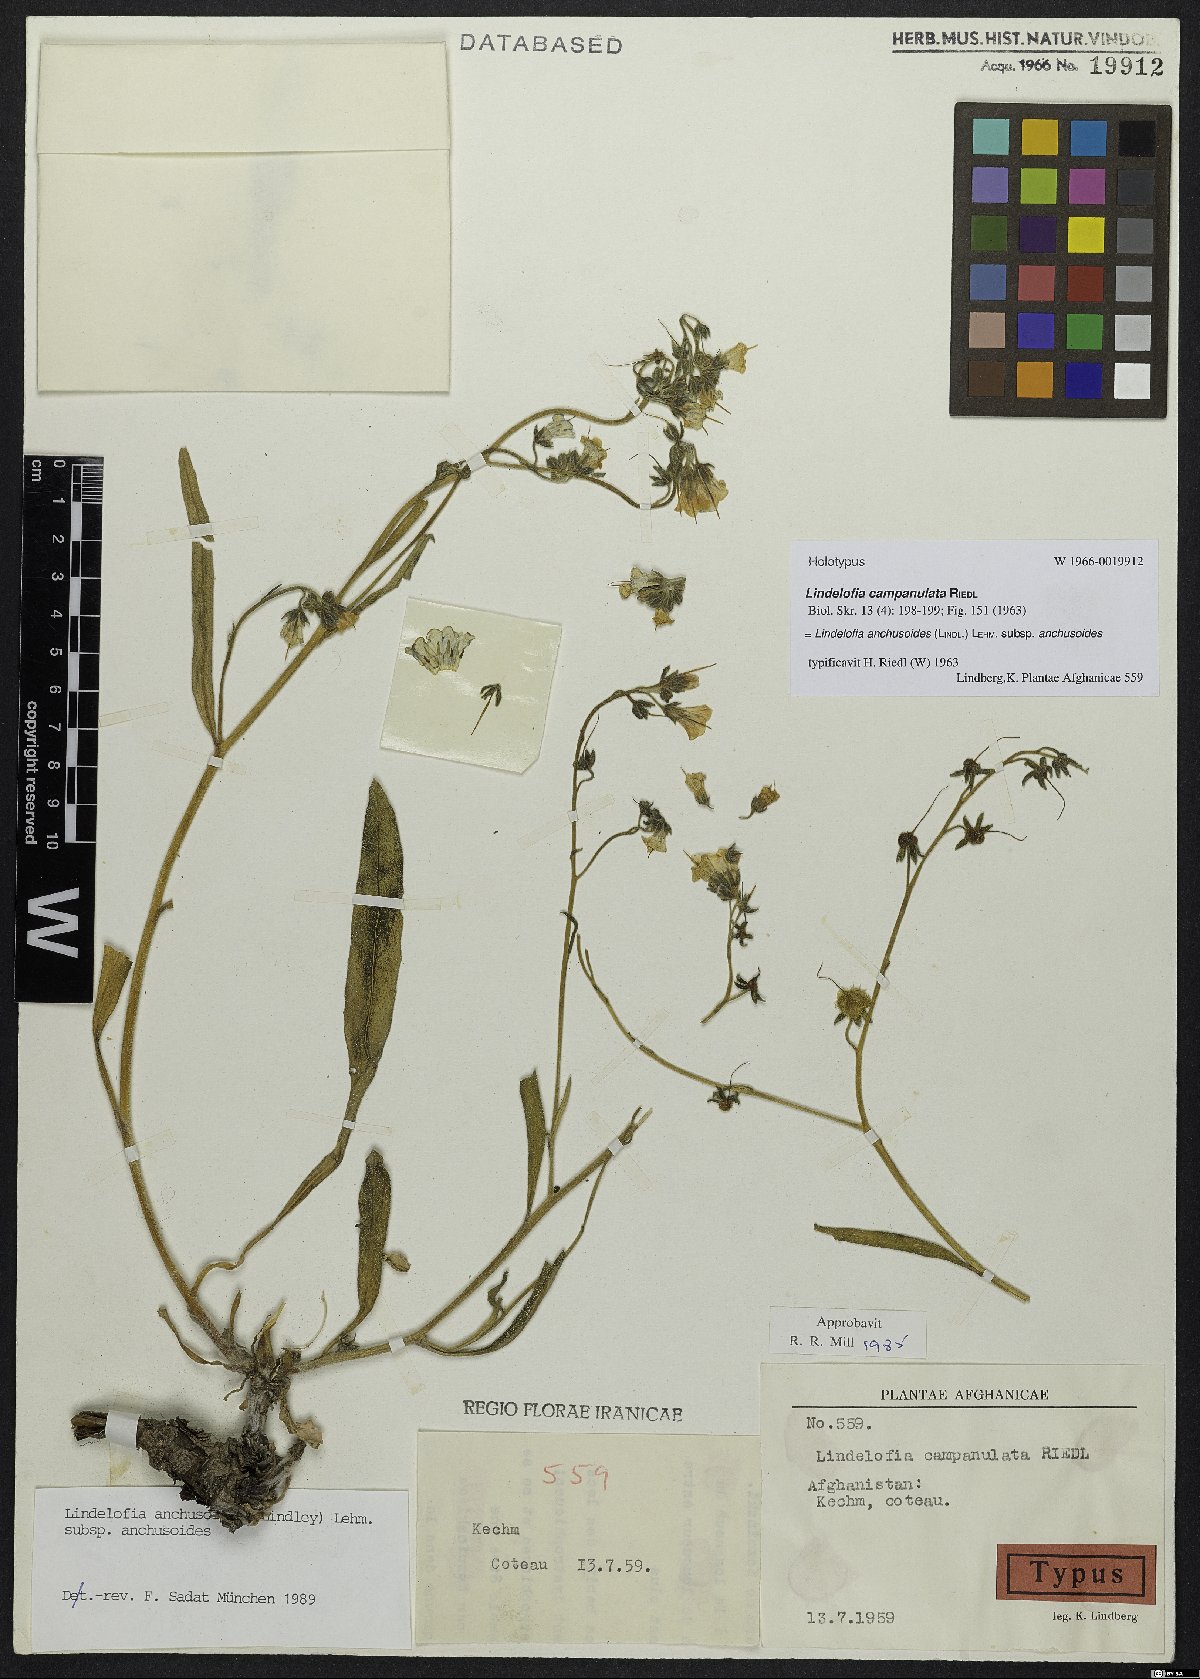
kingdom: Plantae
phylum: Tracheophyta
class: Magnoliopsida
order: Boraginales
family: Boraginaceae
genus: Lindelofia
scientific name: Lindelofia anchusoides
